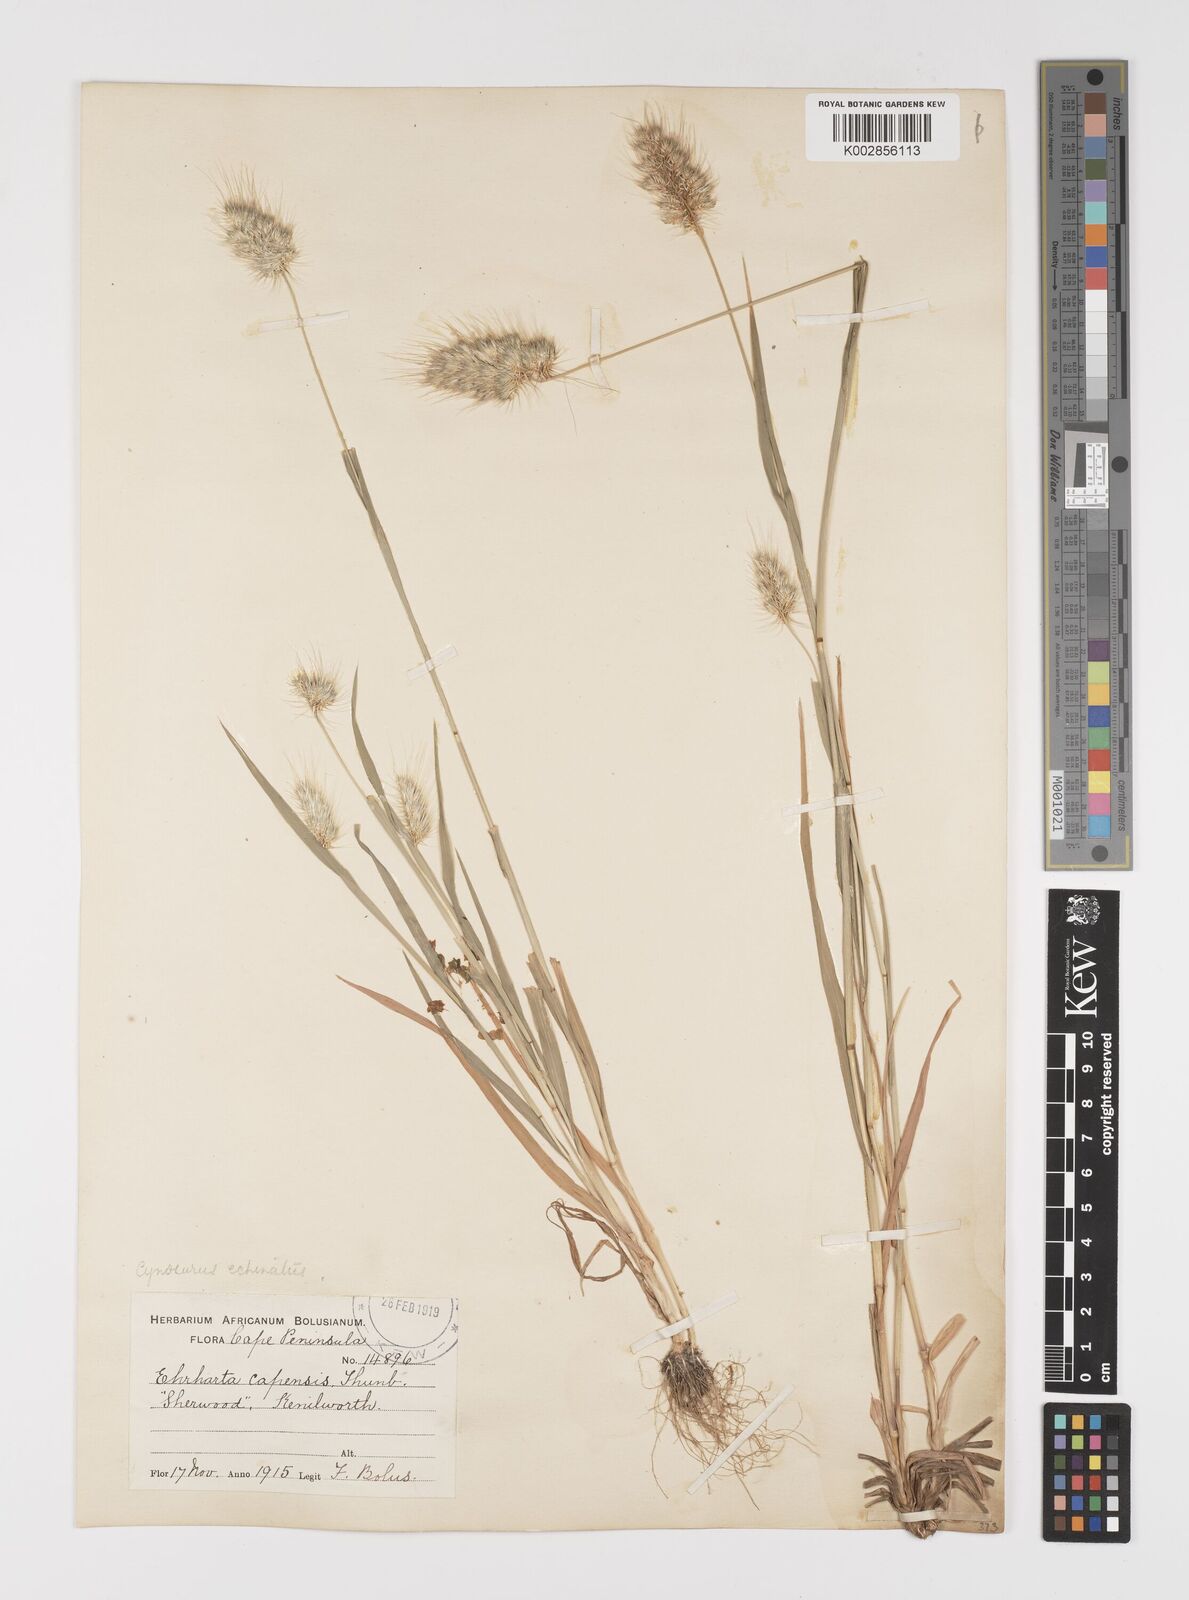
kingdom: Plantae
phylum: Tracheophyta
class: Liliopsida
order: Poales
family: Poaceae
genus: Cynosurus
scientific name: Cynosurus echinatus
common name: Rough dog's-tail
